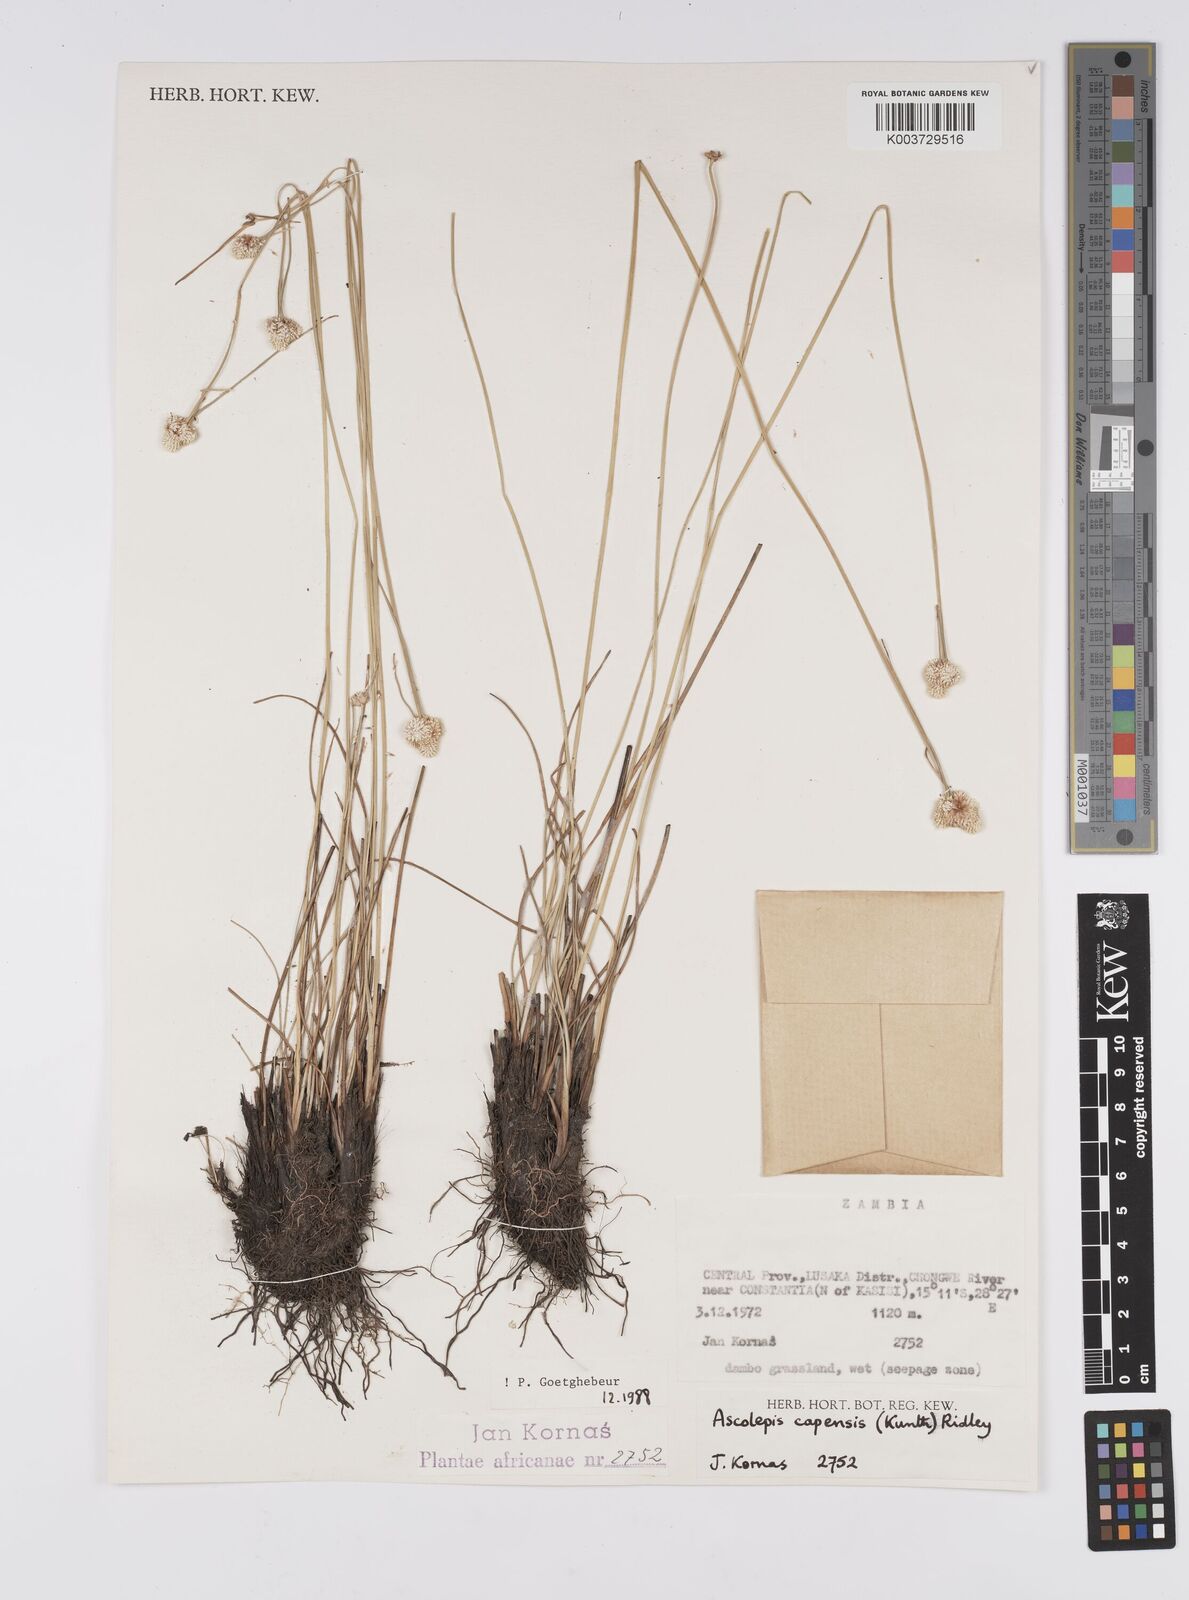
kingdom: Plantae
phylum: Tracheophyta
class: Liliopsida
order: Poales
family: Cyperaceae
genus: Cyperus
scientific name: Cyperus
